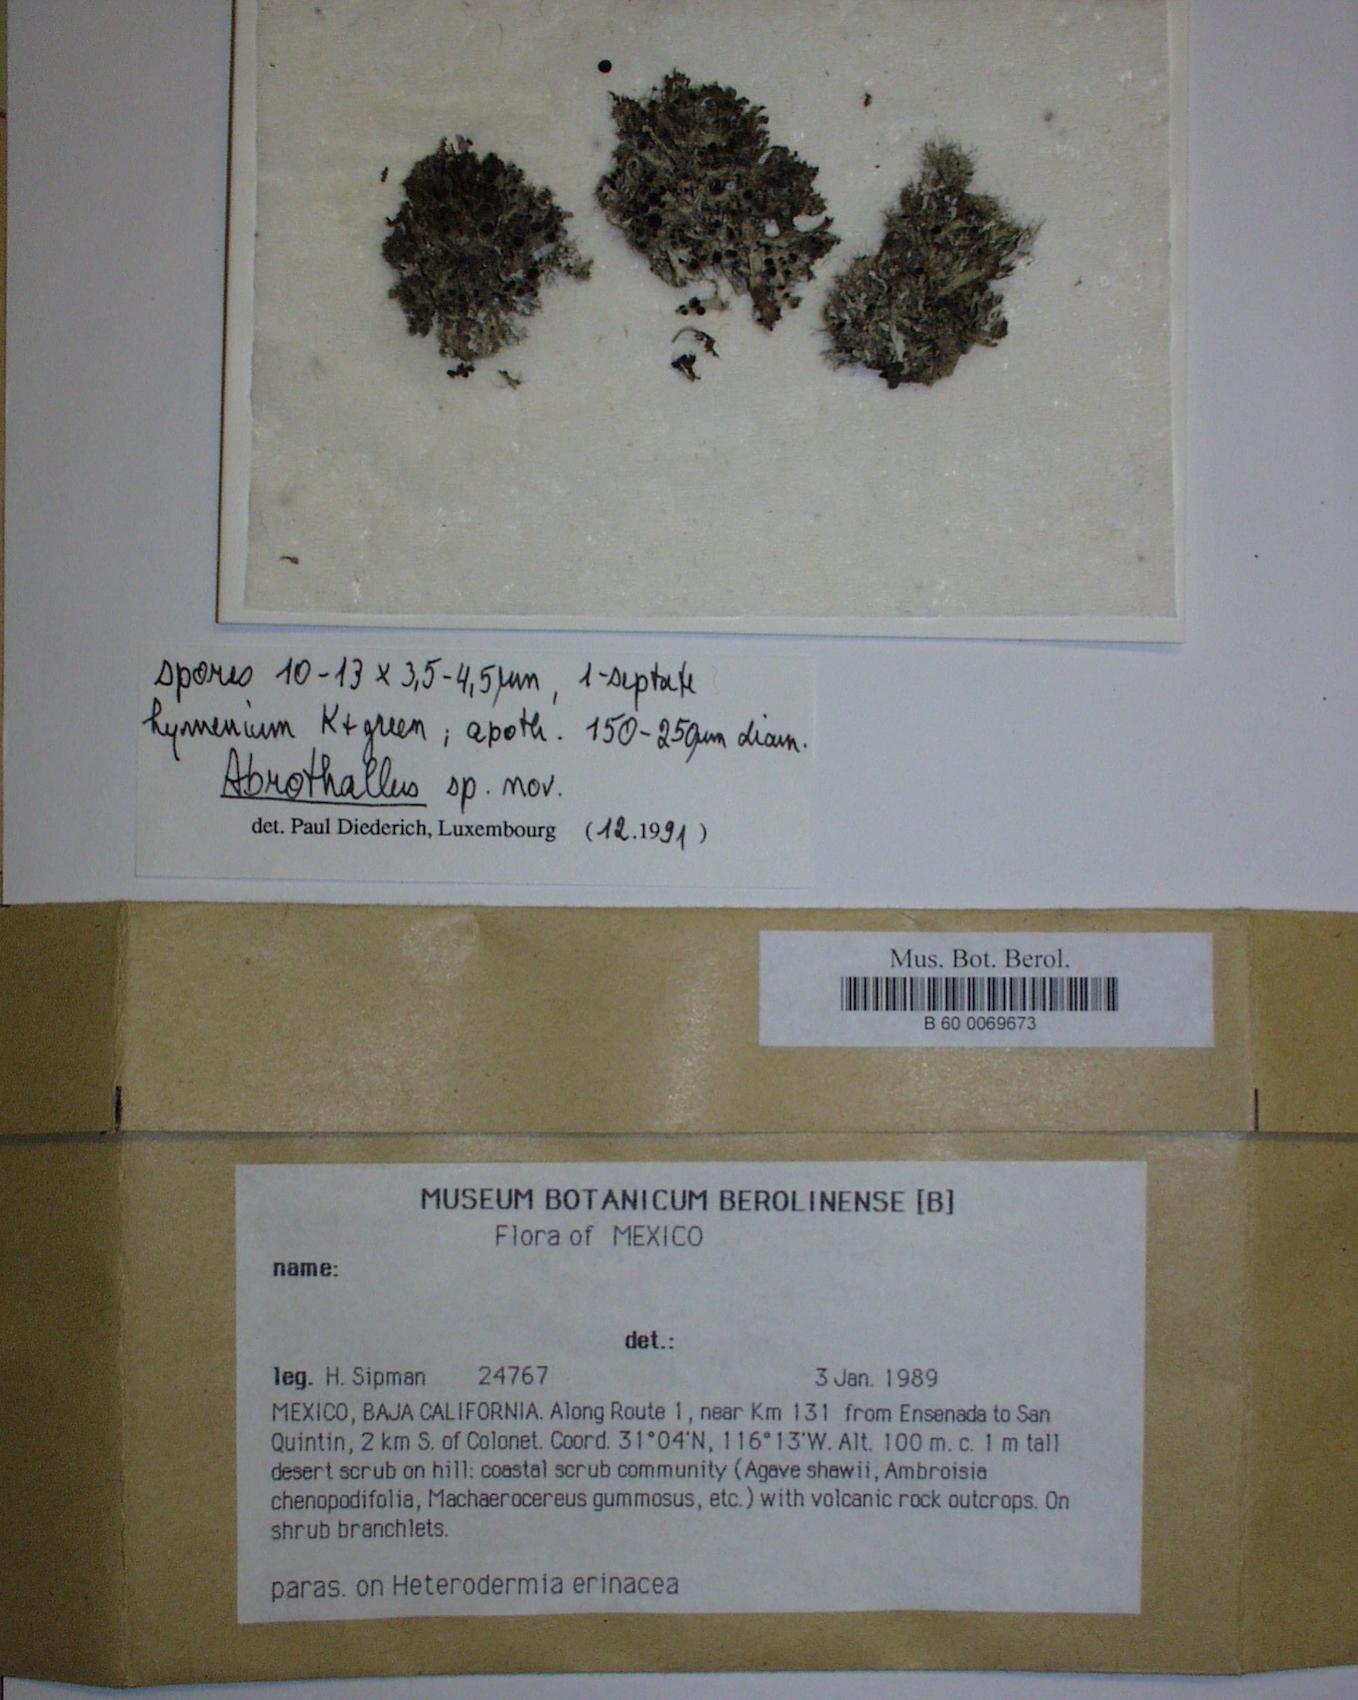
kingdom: Fungi
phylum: Ascomycota
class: Dothideomycetes
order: Pleosporales
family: Dacampiaceae
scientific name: Dacampiaceae
